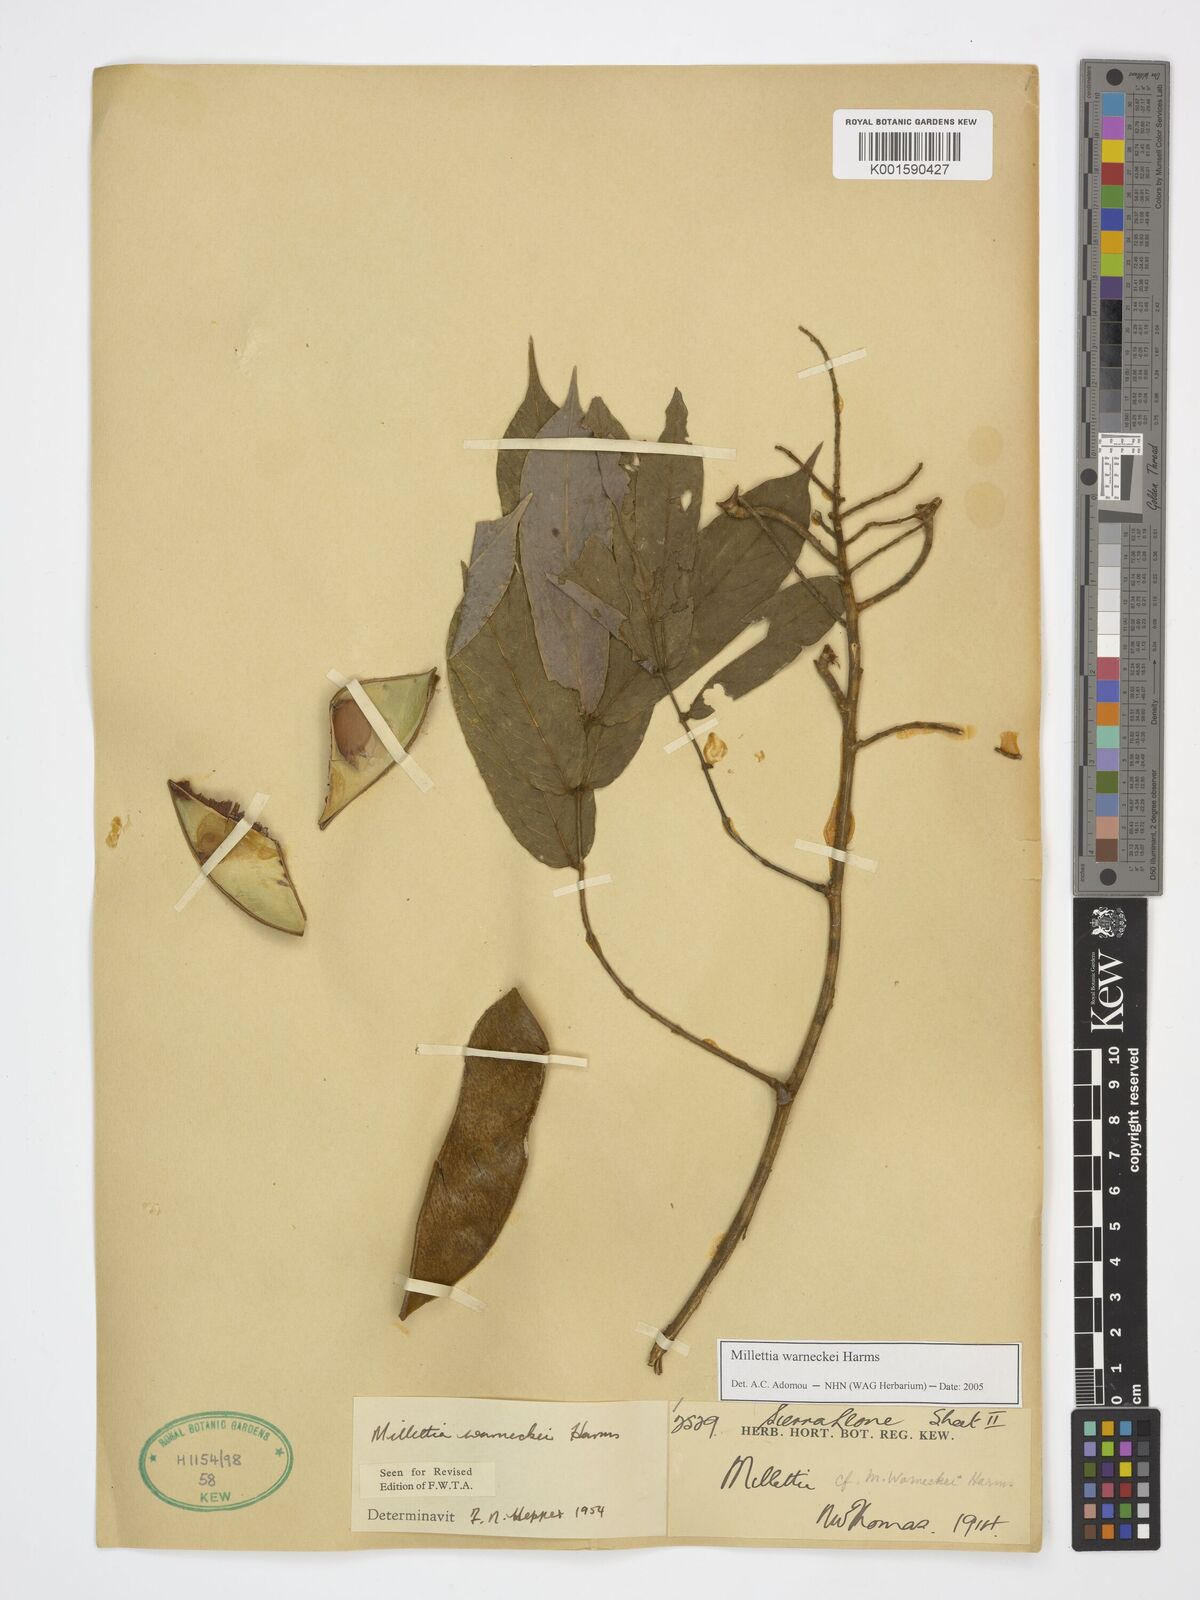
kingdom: Plantae
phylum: Tracheophyta
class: Magnoliopsida
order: Fabales
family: Fabaceae
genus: Millettia
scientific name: Millettia warneckei
